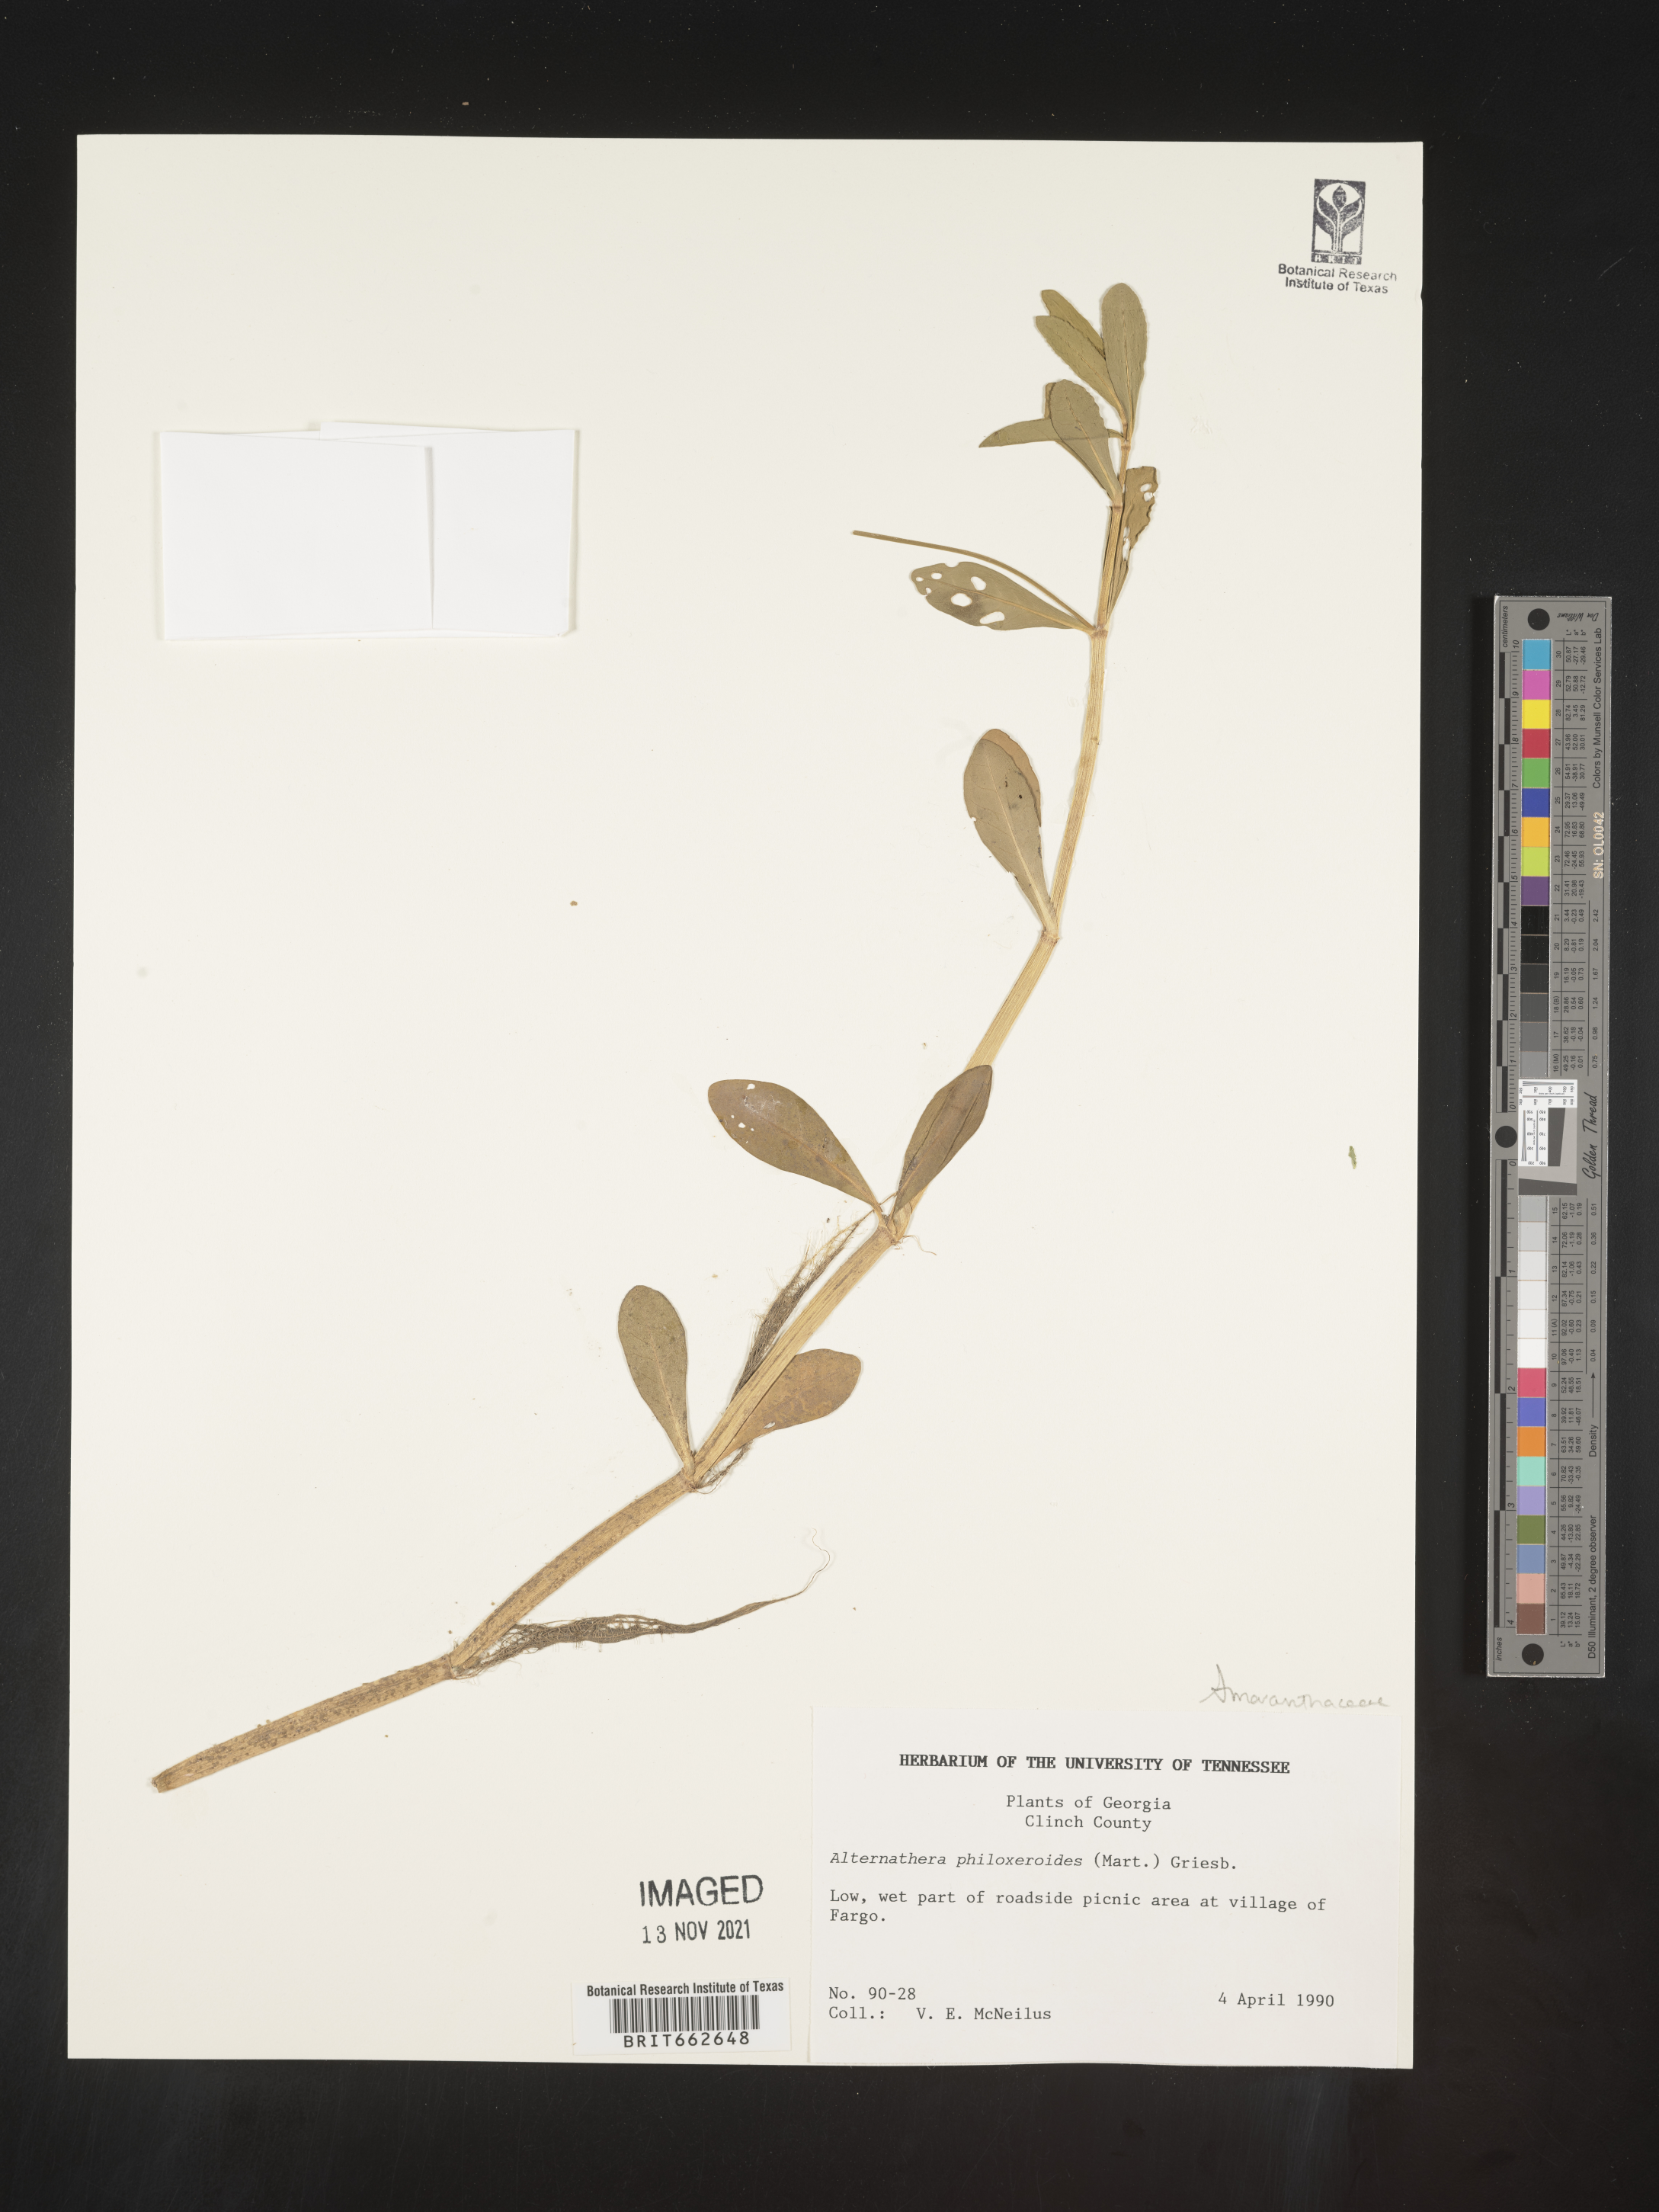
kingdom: Plantae
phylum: Tracheophyta
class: Magnoliopsida
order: Caryophyllales
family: Amaranthaceae
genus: Alternanthera
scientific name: Alternanthera philoxeroides
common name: Alligatorweed
